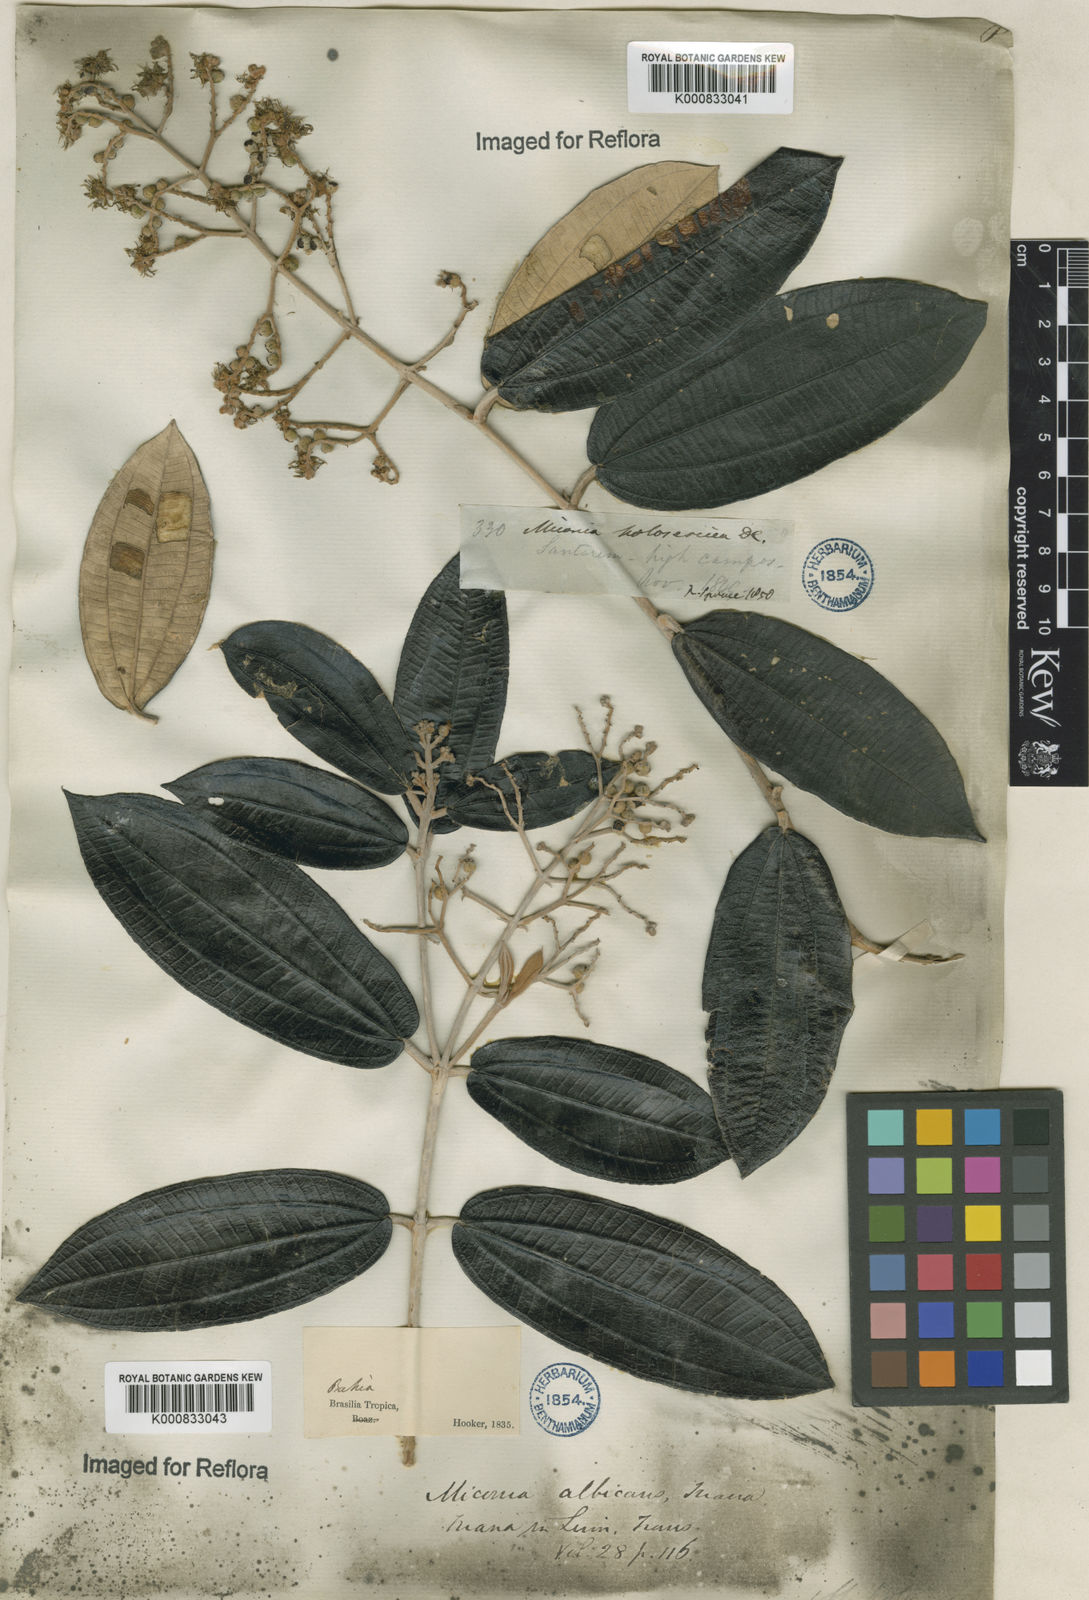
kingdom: Plantae
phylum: Tracheophyta
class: Magnoliopsida
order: Myrtales
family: Melastomataceae
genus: Miconia
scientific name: Miconia albicans
